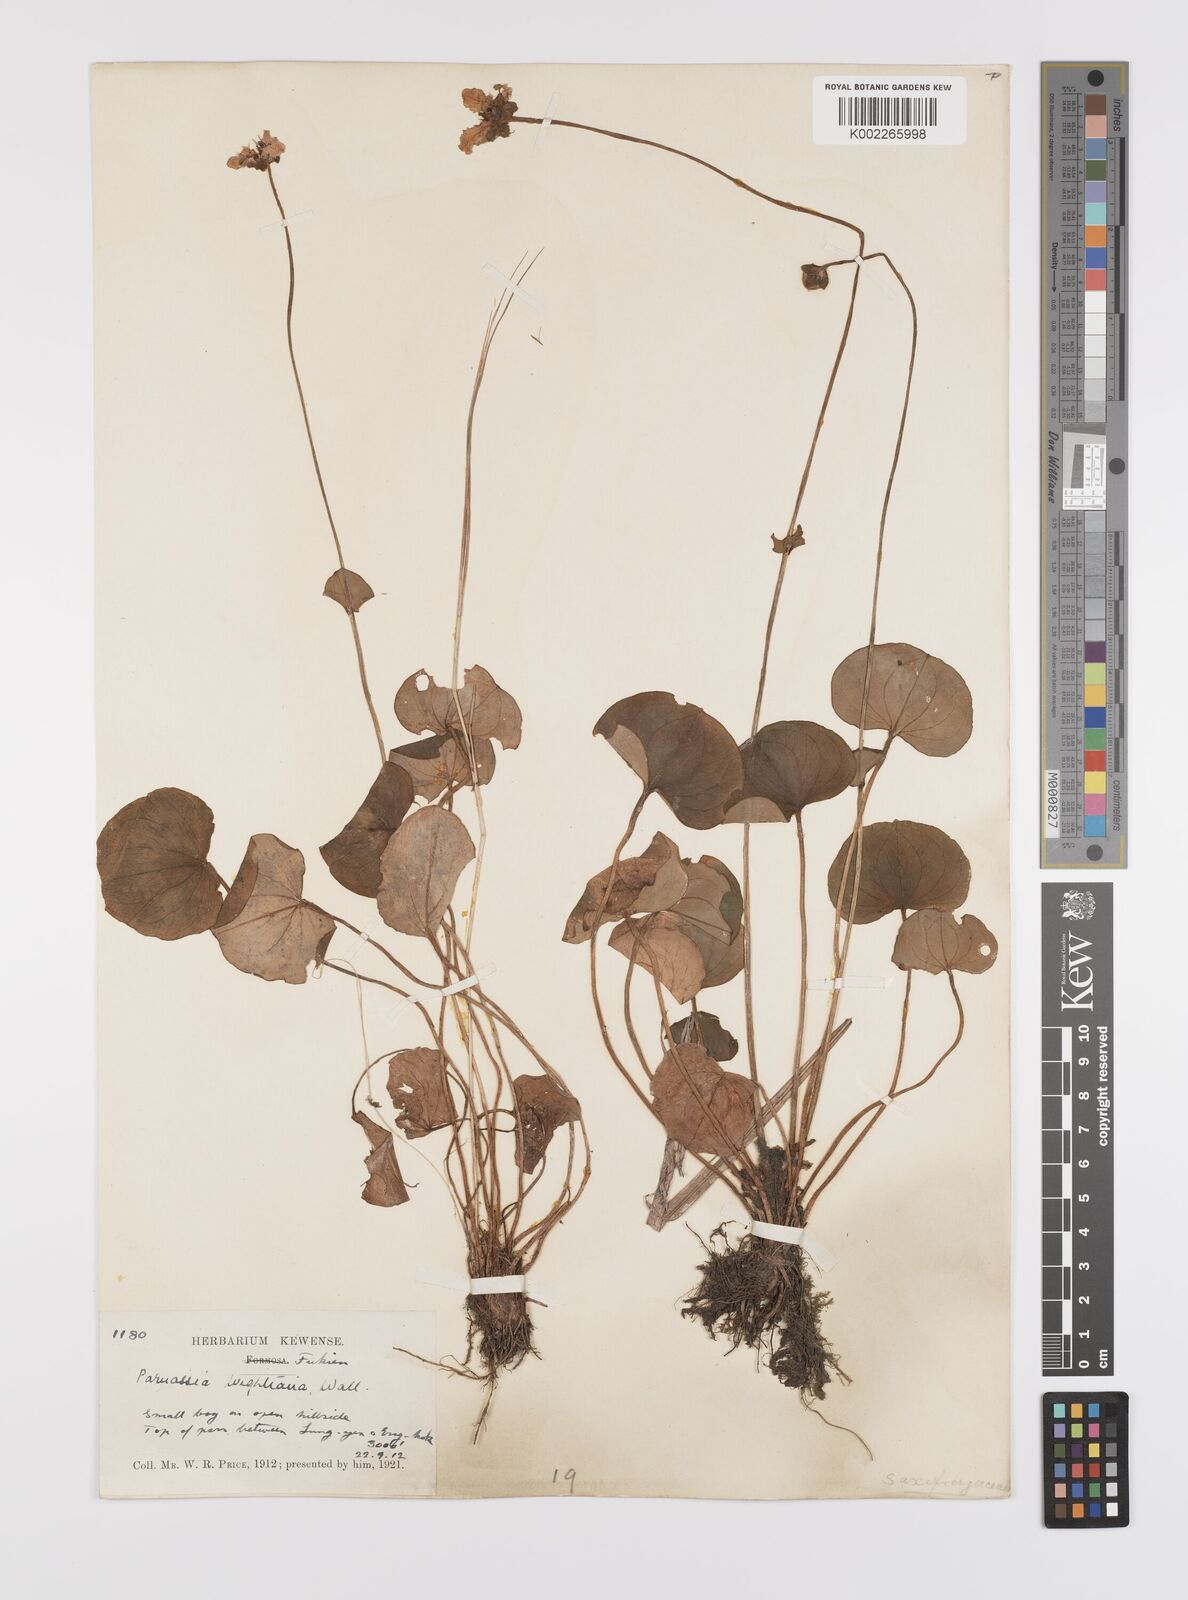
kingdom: Plantae
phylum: Tracheophyta
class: Magnoliopsida
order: Celastrales
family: Parnassiaceae
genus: Parnassia
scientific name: Parnassia wightiana
